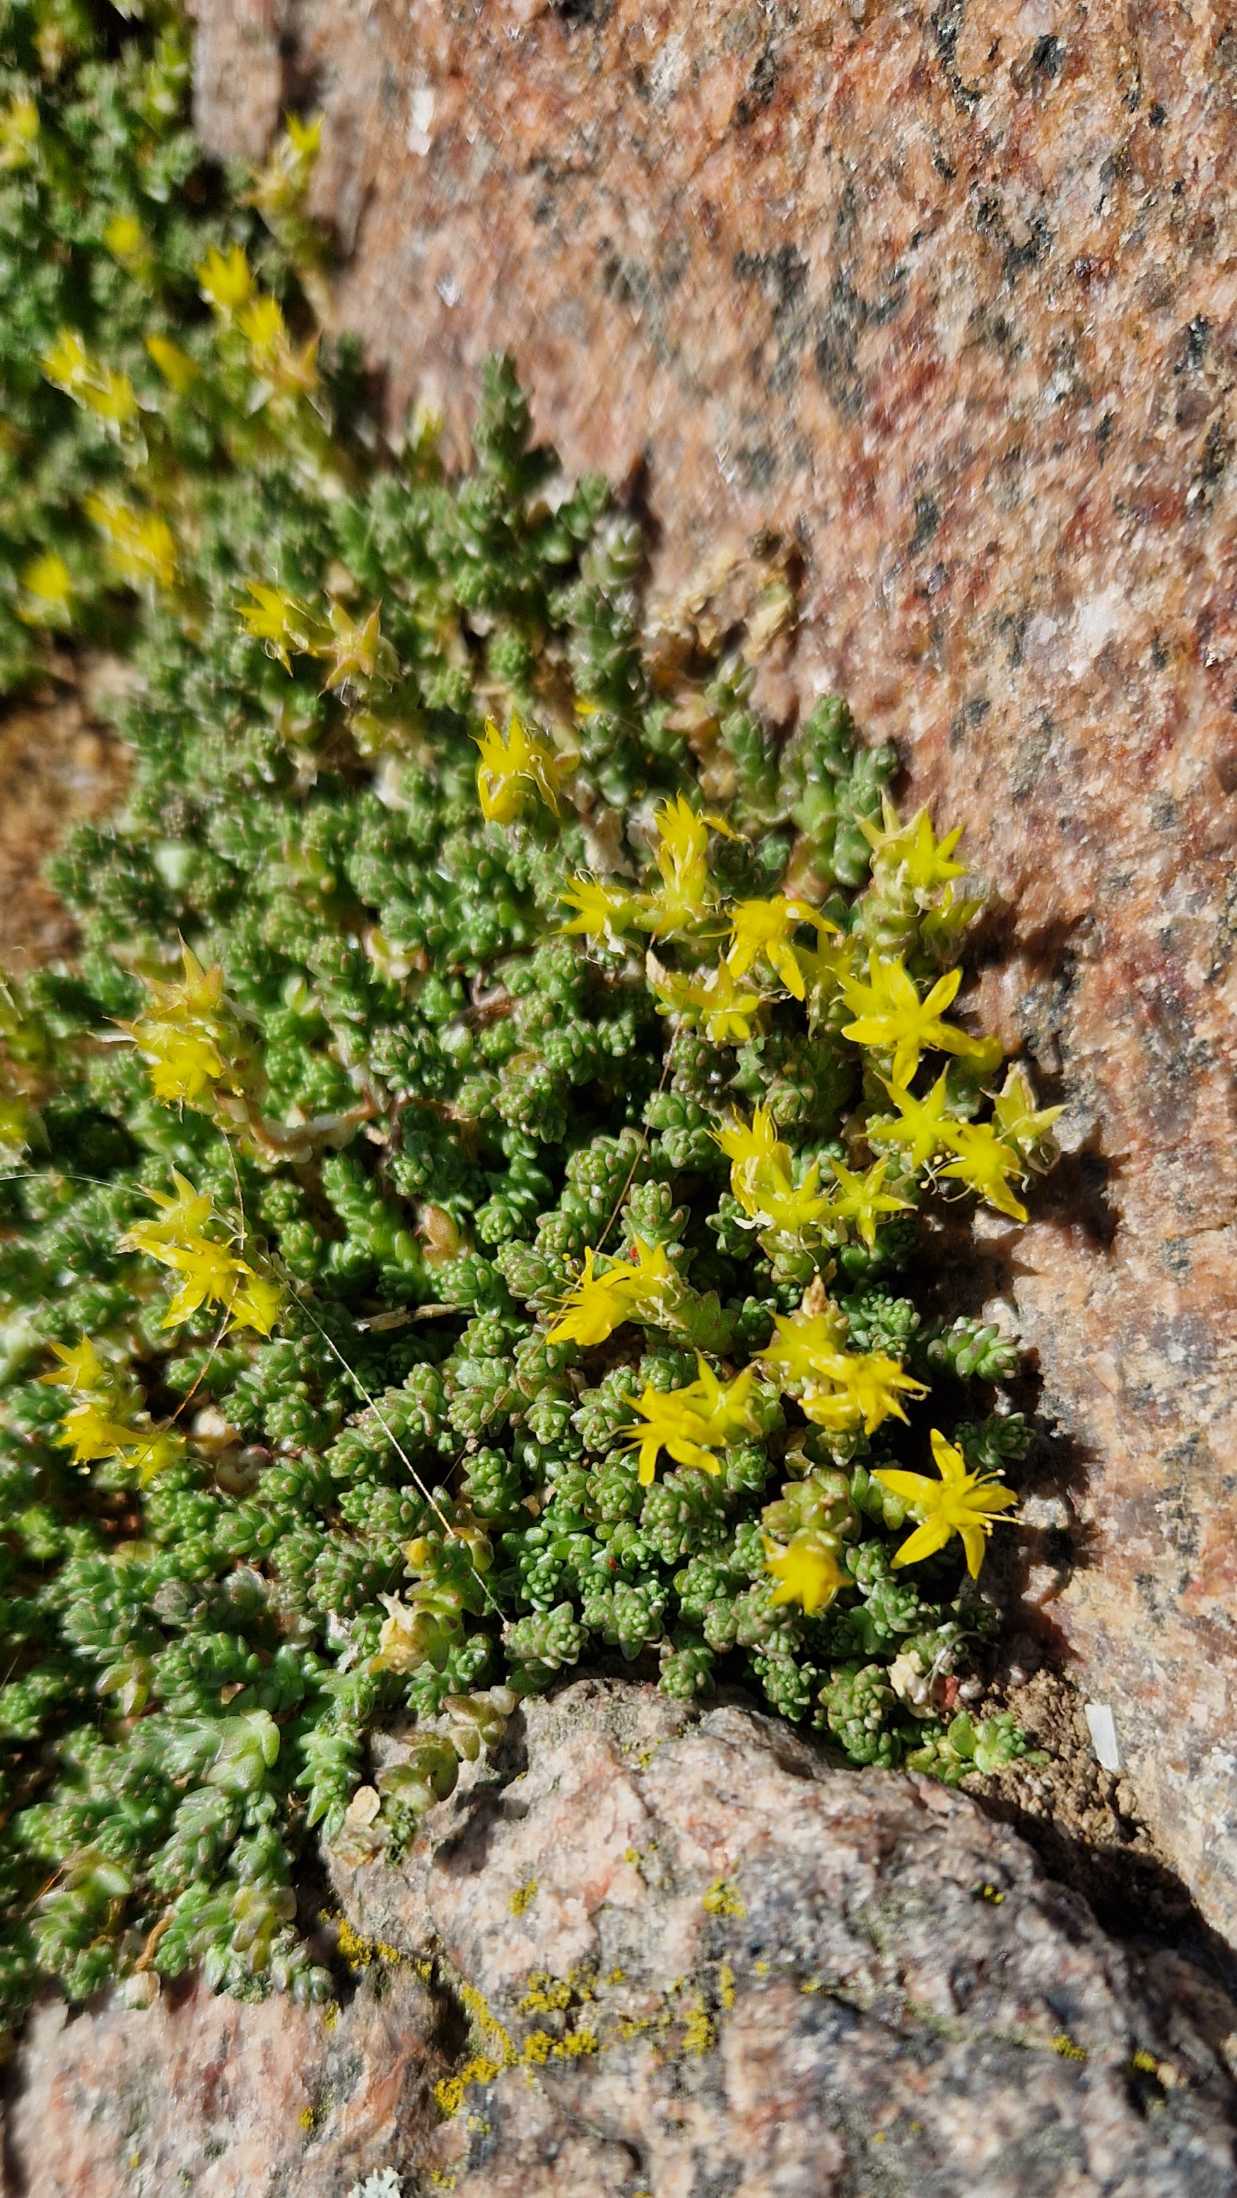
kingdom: Plantae
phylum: Tracheophyta
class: Magnoliopsida
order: Saxifragales
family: Crassulaceae
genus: Sedum
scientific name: Sedum acre
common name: Bidende stenurt
